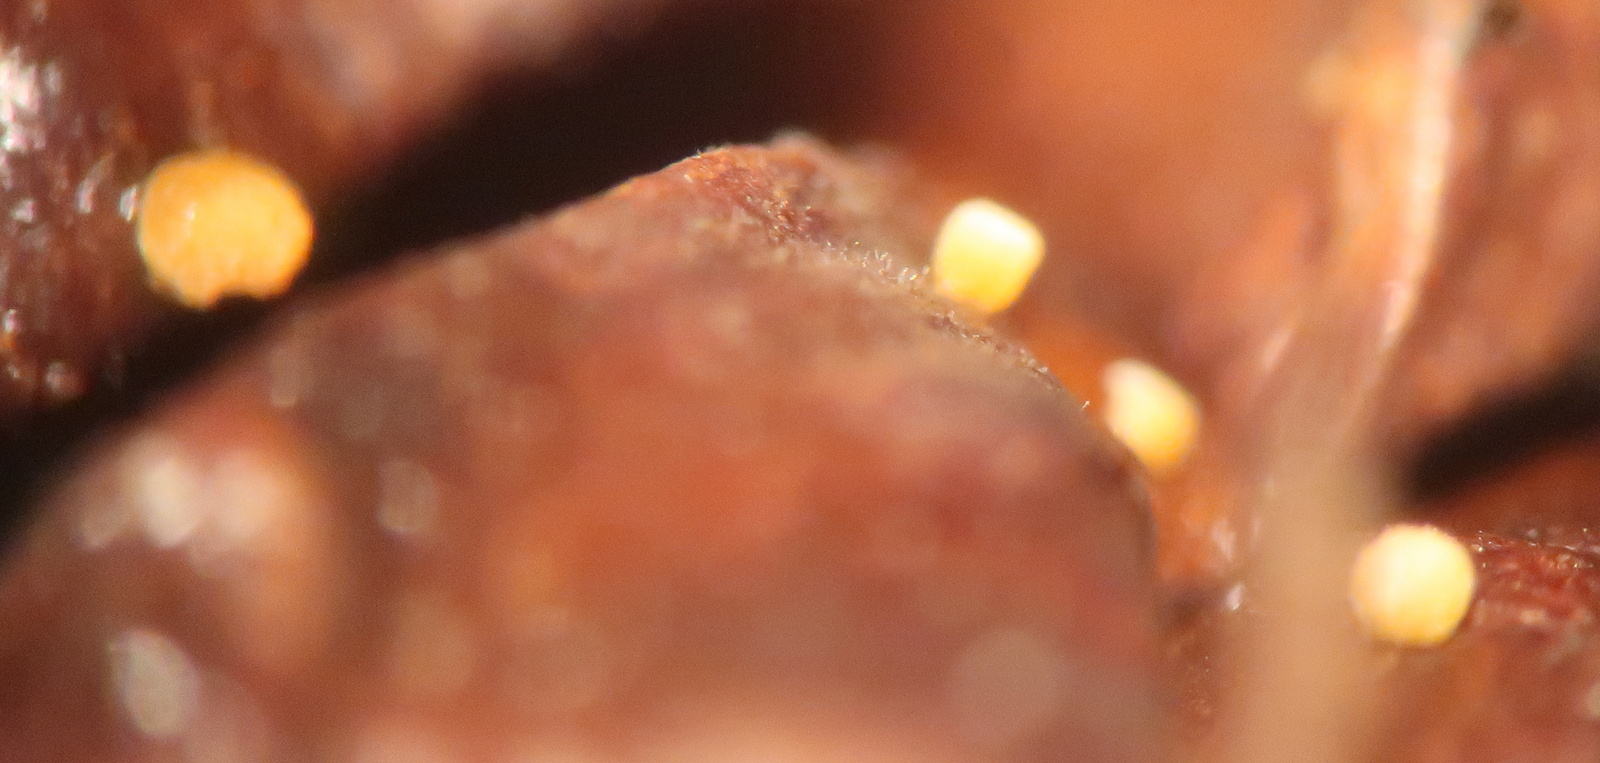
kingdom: Fungi
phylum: Ascomycota
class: Leotiomycetes
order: Helotiales
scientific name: Helotiales
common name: stilkskiveordenen
